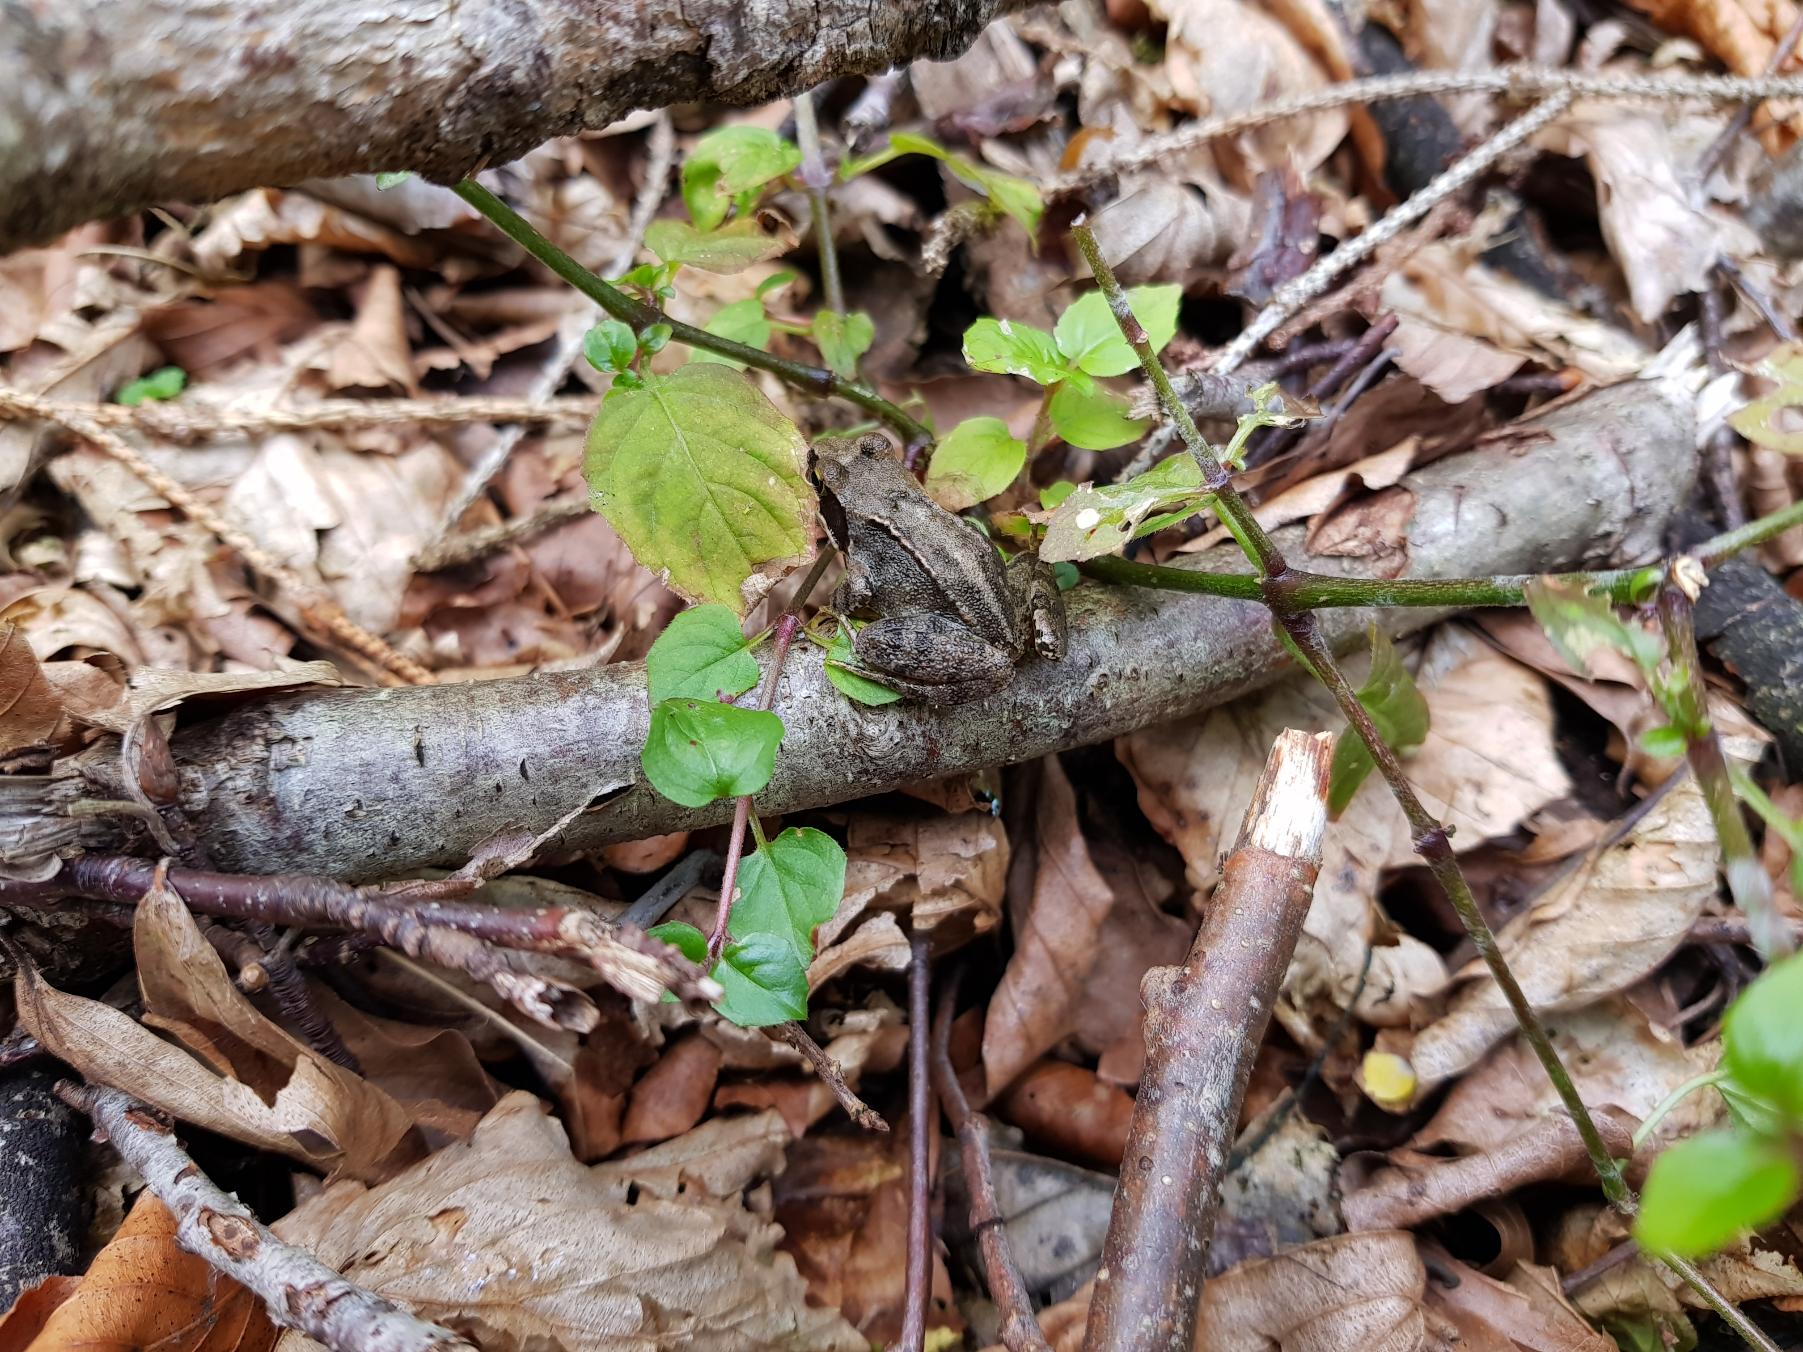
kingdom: Animalia
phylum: Chordata
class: Amphibia
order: Anura
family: Ranidae
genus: Rana
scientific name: Rana temporaria
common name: Butsnudet frø
